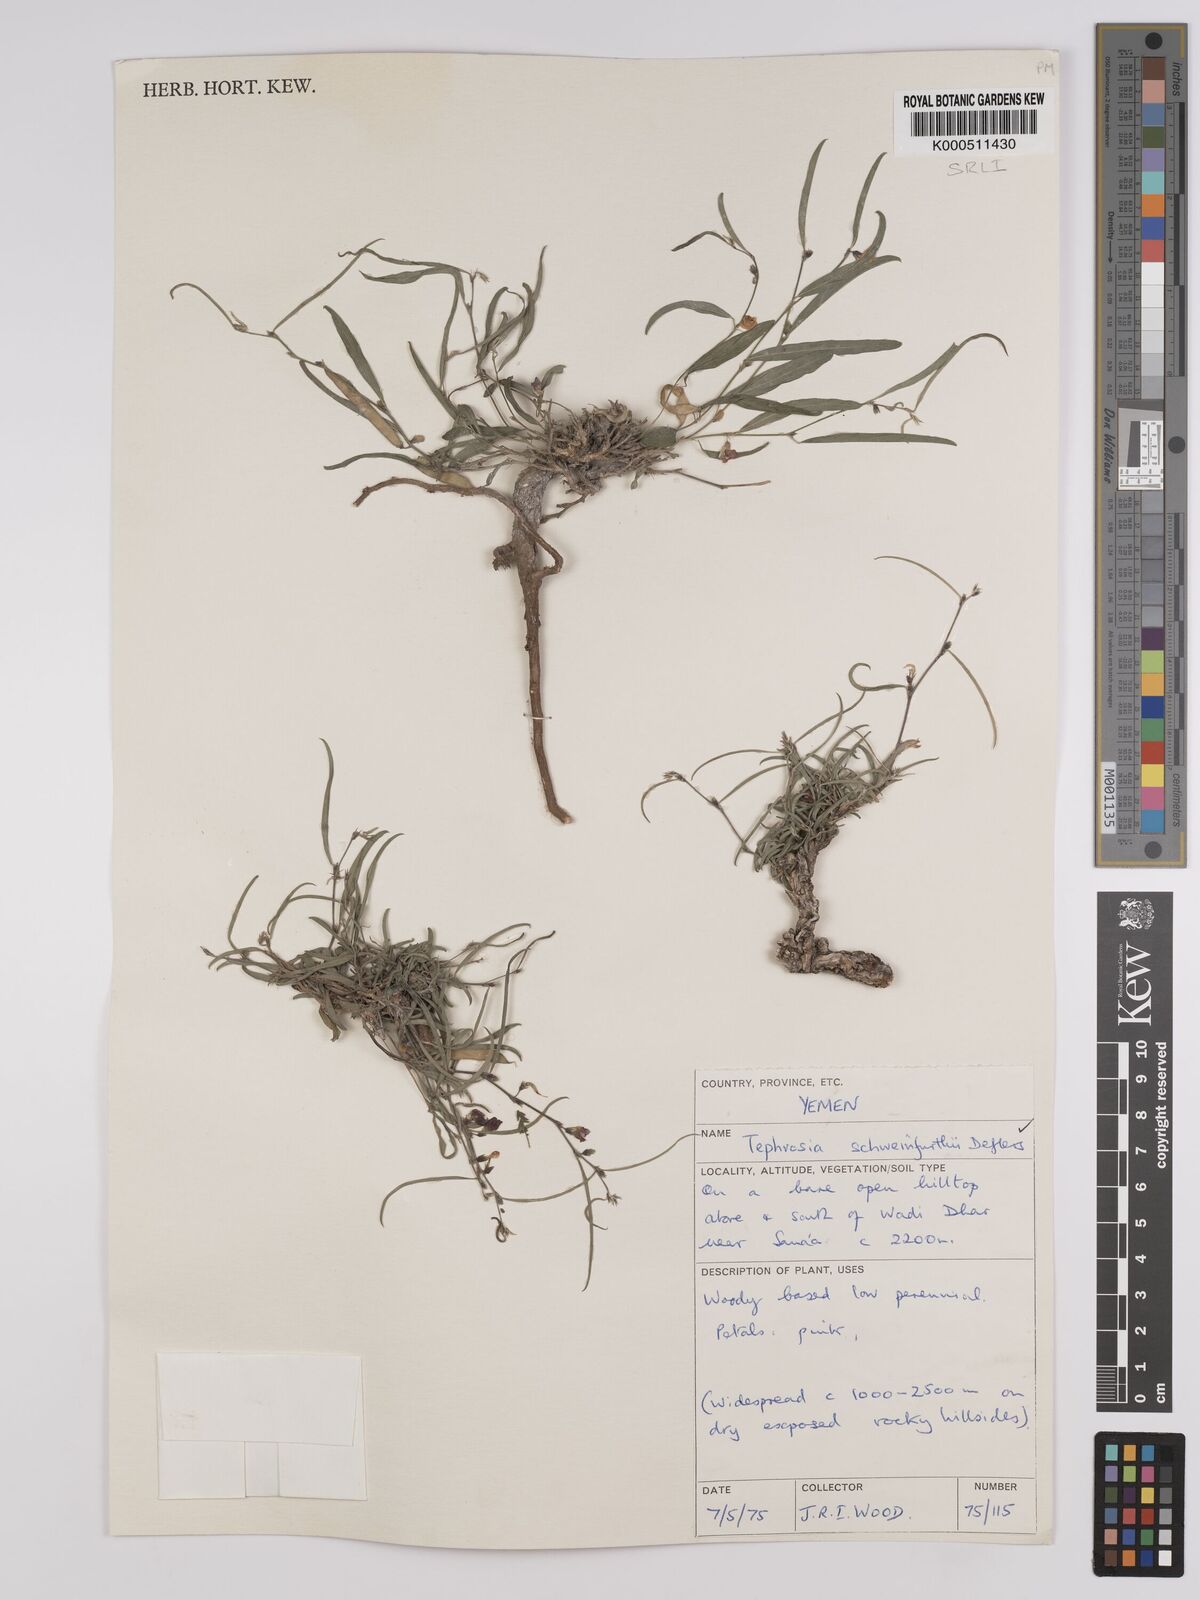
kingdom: Plantae
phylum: Tracheophyta
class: Magnoliopsida
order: Fabales
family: Fabaceae
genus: Tephrosia
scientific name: Tephrosia heterophylla
